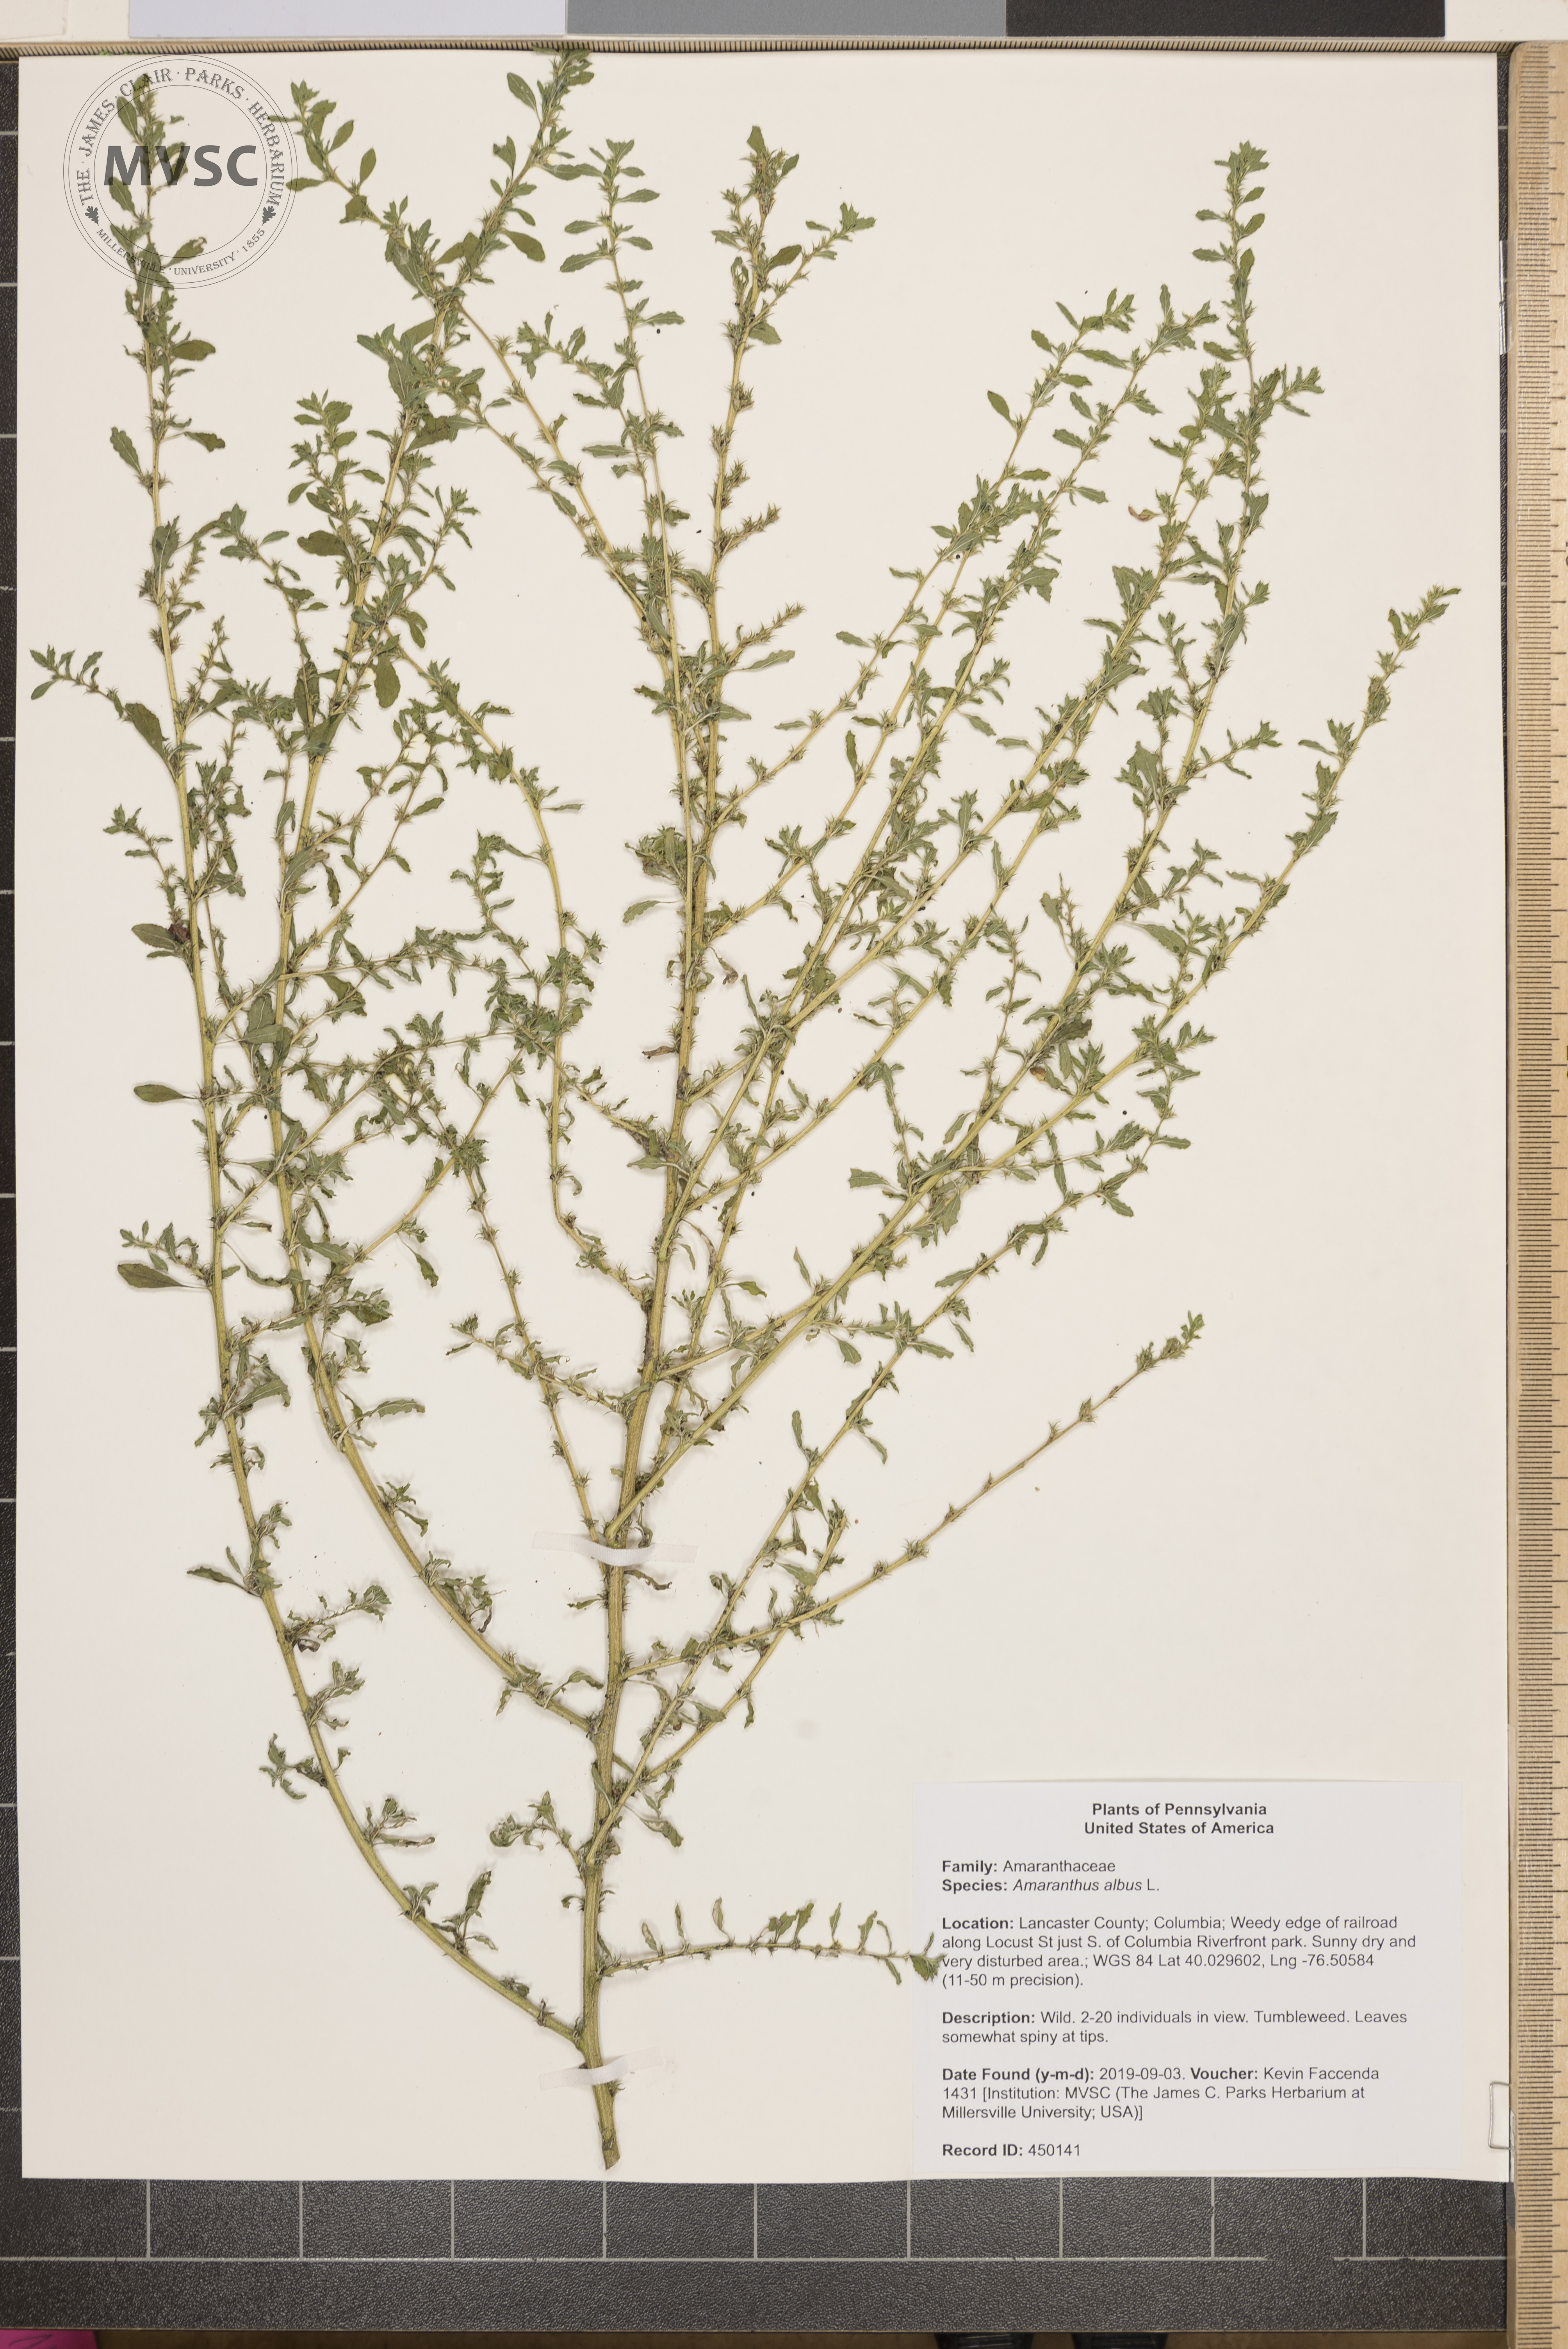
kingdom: Plantae
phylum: Tracheophyta
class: Magnoliopsida
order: Caryophyllales
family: Amaranthaceae
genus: Amaranthus
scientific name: Amaranthus albus
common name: White pigweed
